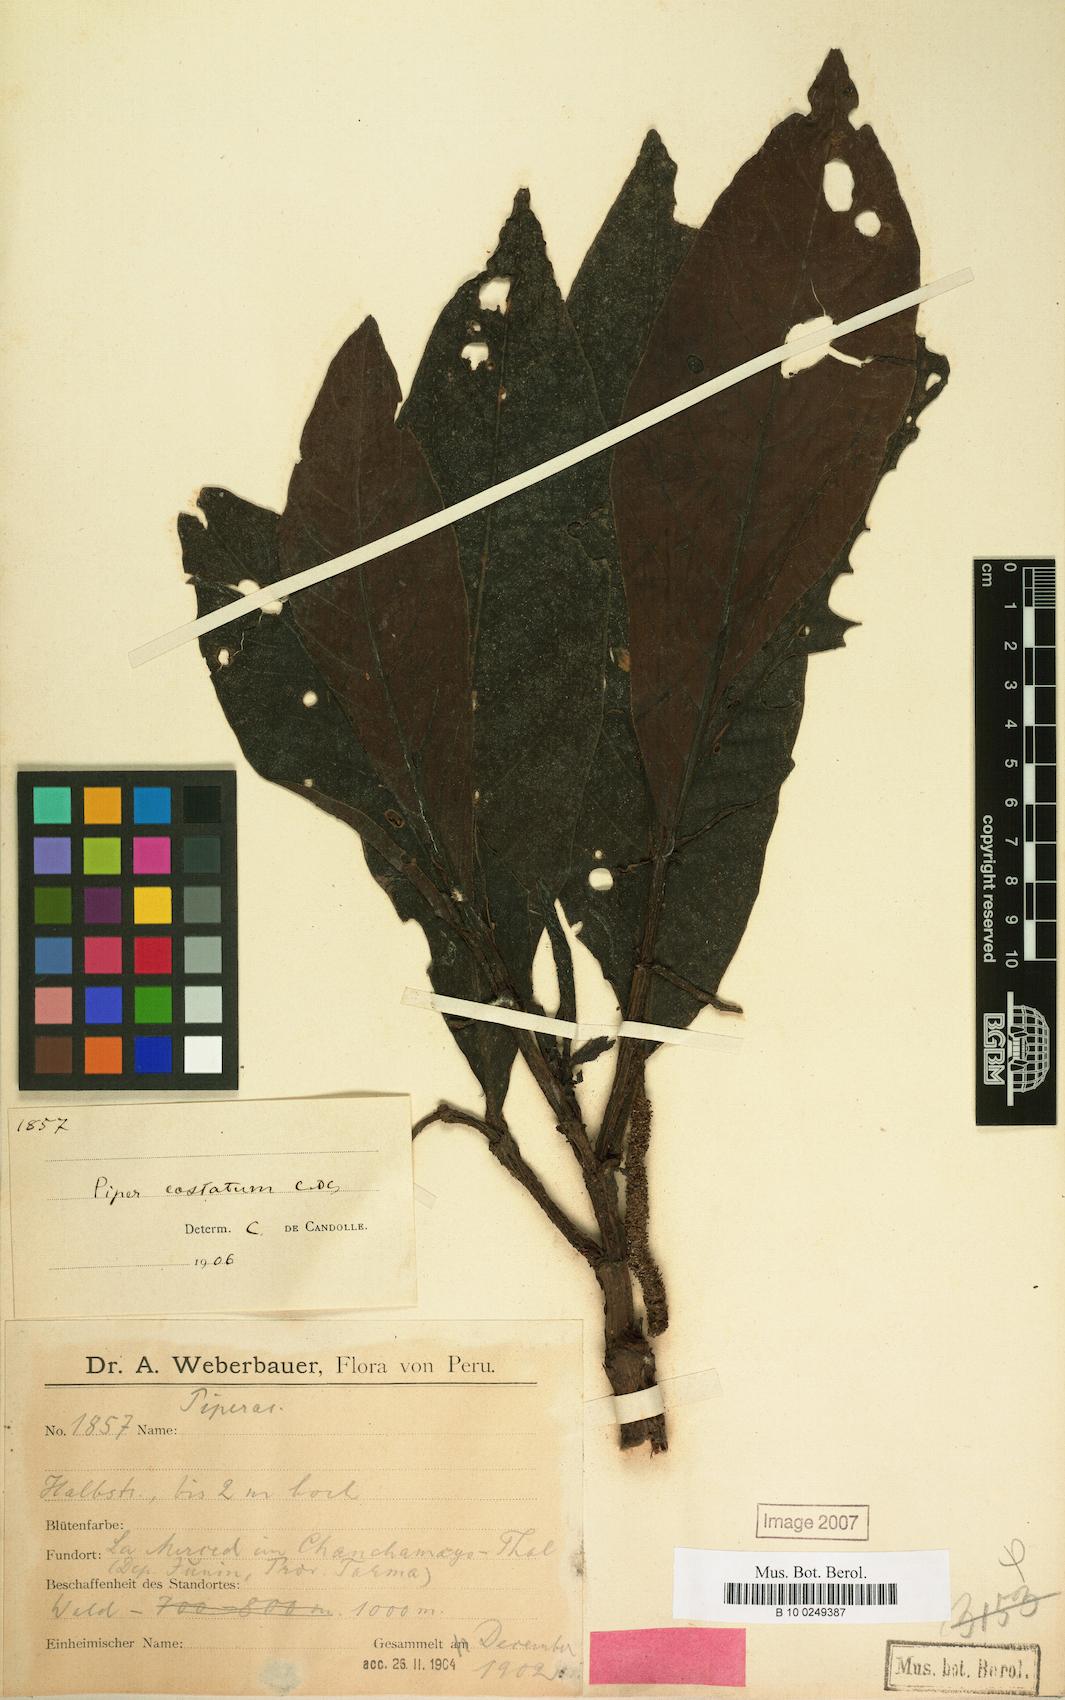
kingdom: Plantae
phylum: Tracheophyta
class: Magnoliopsida
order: Piperales
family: Piperaceae
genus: Piper
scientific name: Piper costatum
